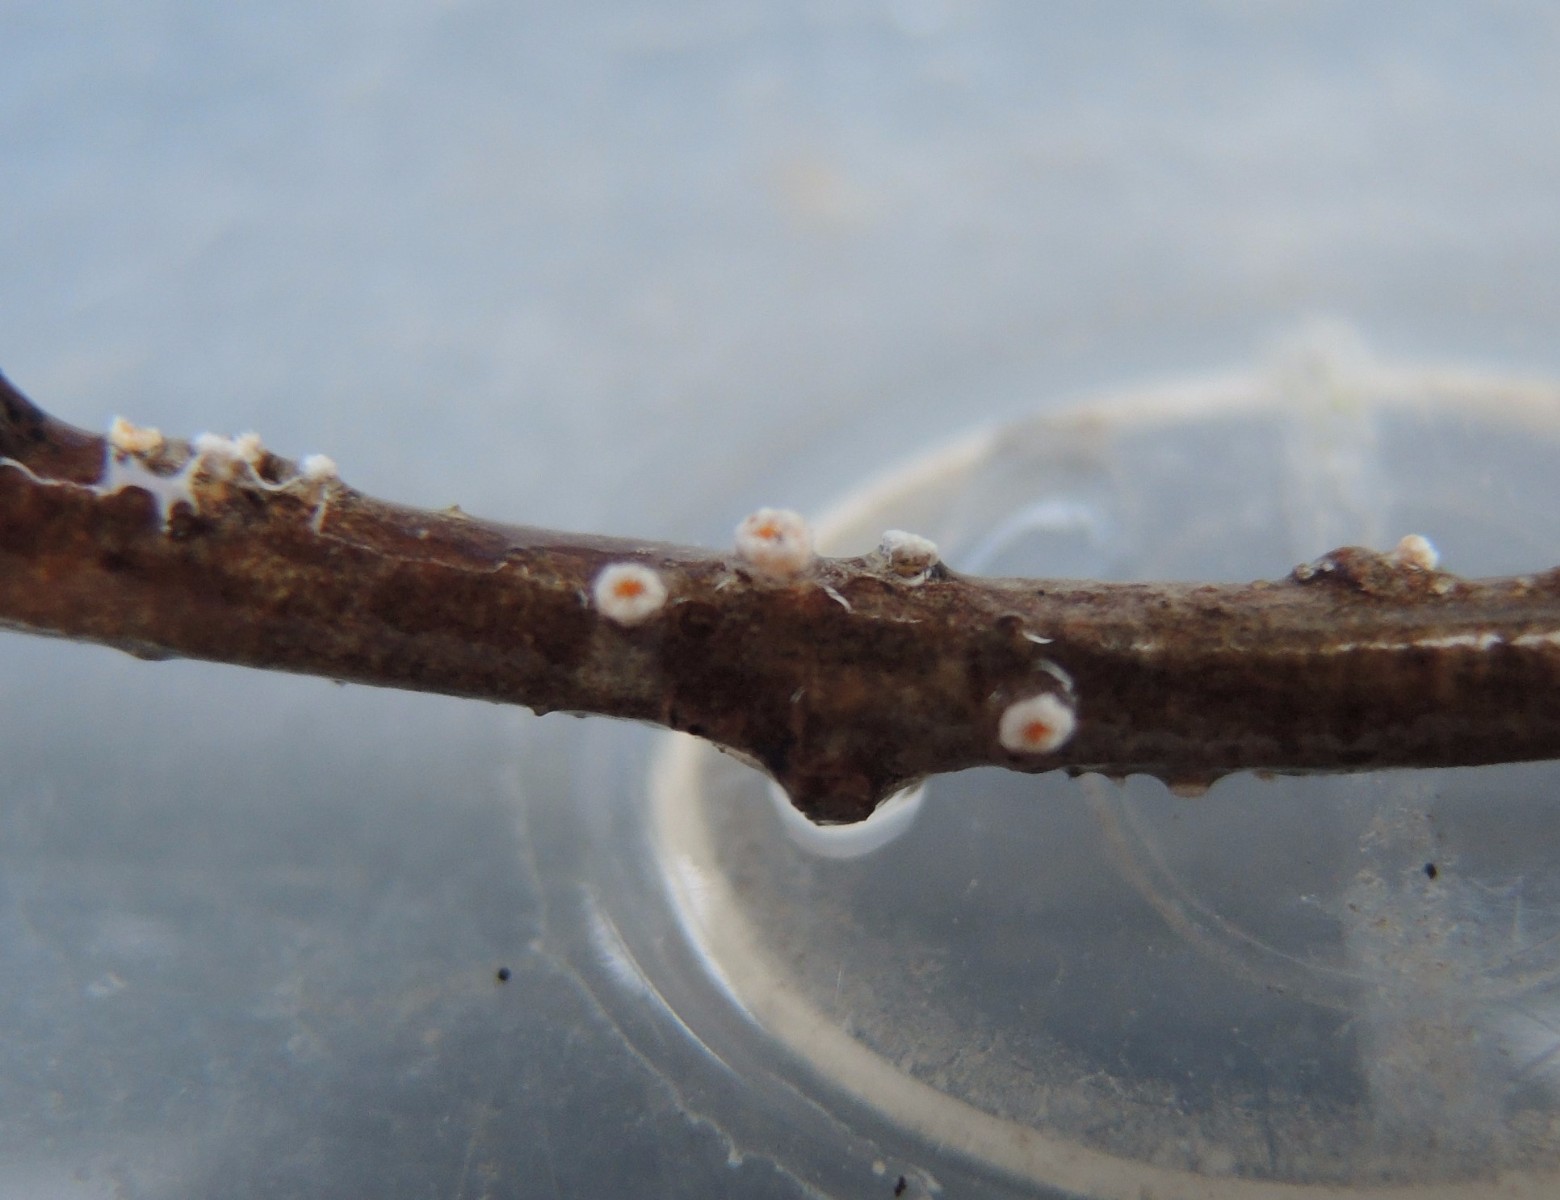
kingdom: Fungi
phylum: Ascomycota
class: Leotiomycetes
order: Helotiales
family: Lachnaceae
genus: Capitotricha
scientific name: Capitotricha bicolor
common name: prægtig frynseskive
